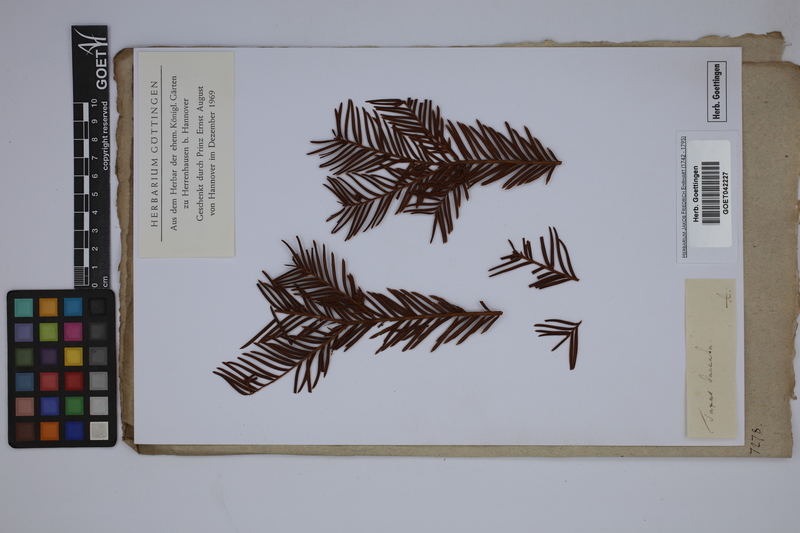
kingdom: Plantae
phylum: Tracheophyta
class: Pinopsida
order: Pinales
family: Taxaceae
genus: Taxus
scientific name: Taxus baccata
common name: Yew
